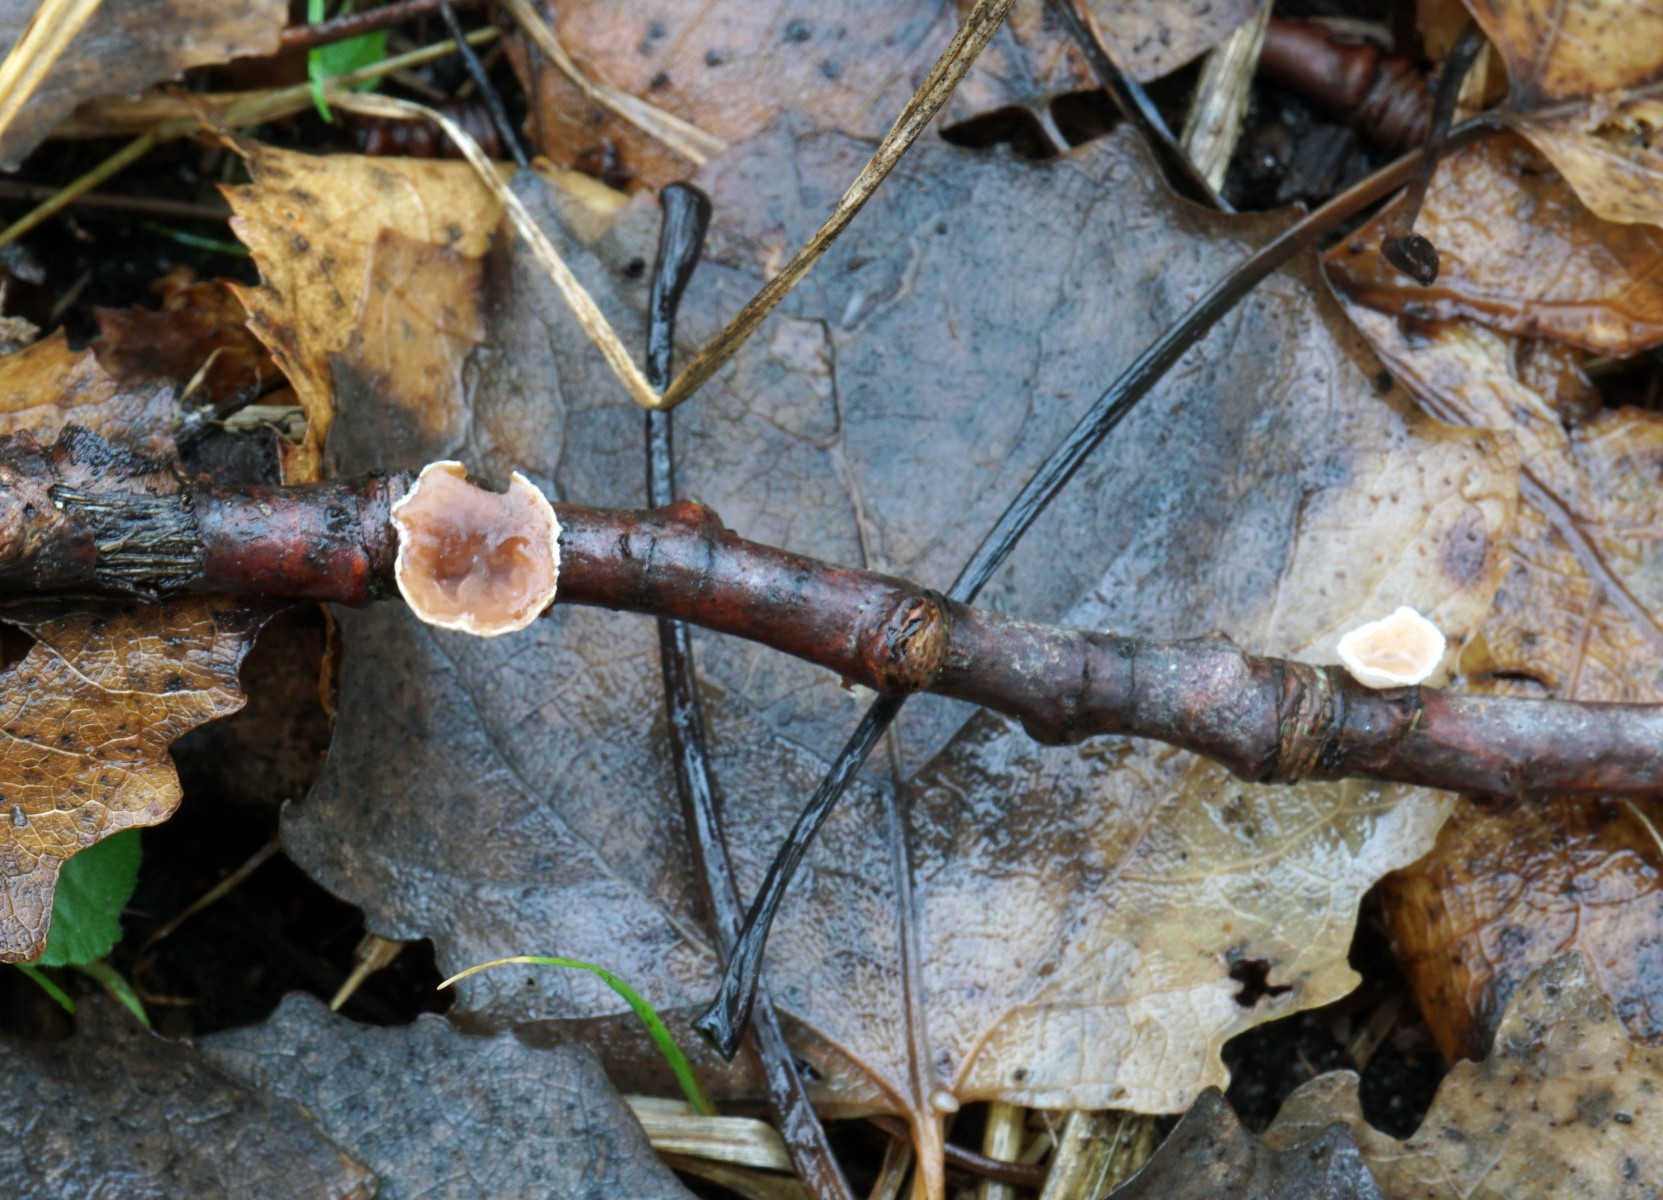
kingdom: Fungi
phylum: Basidiomycota
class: Agaricomycetes
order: Agaricales
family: Schizophyllaceae
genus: Schizophyllum
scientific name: Schizophyllum amplum
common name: poppel-hængeøre
